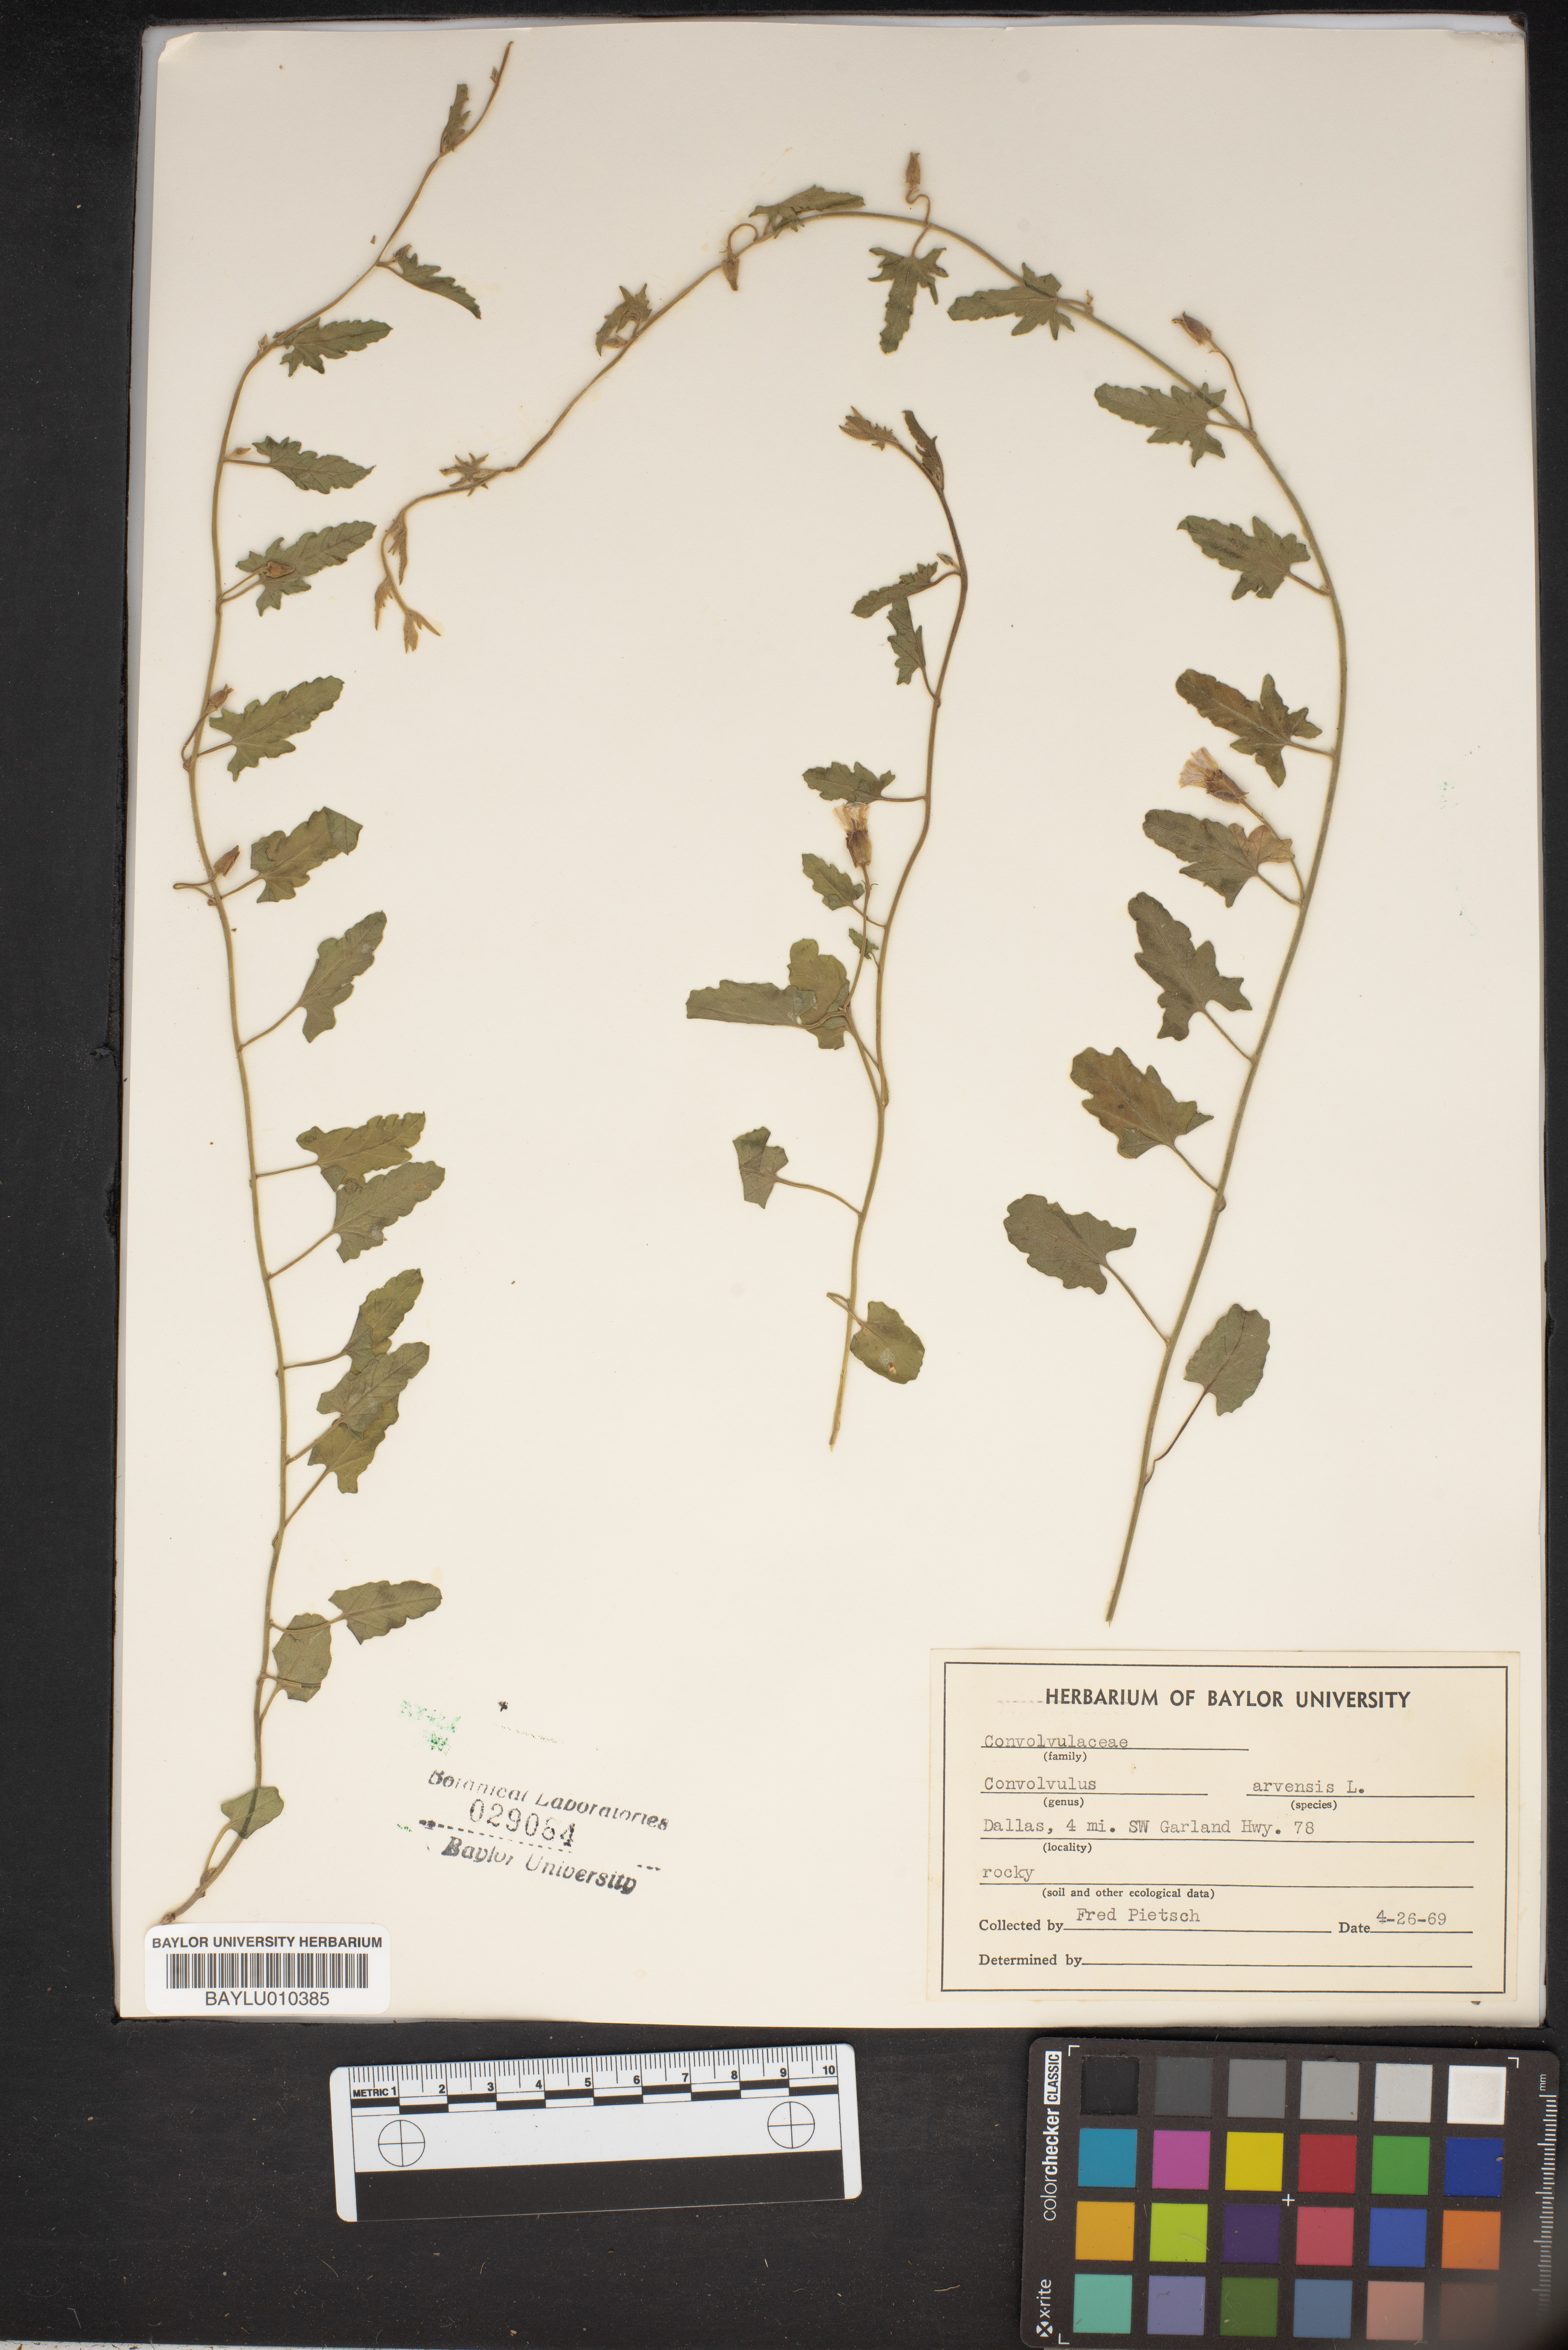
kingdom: Plantae
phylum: Tracheophyta
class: Magnoliopsida
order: Solanales
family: Convolvulaceae
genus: Convolvulus
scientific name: Convolvulus arvensis
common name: Field bindweed
